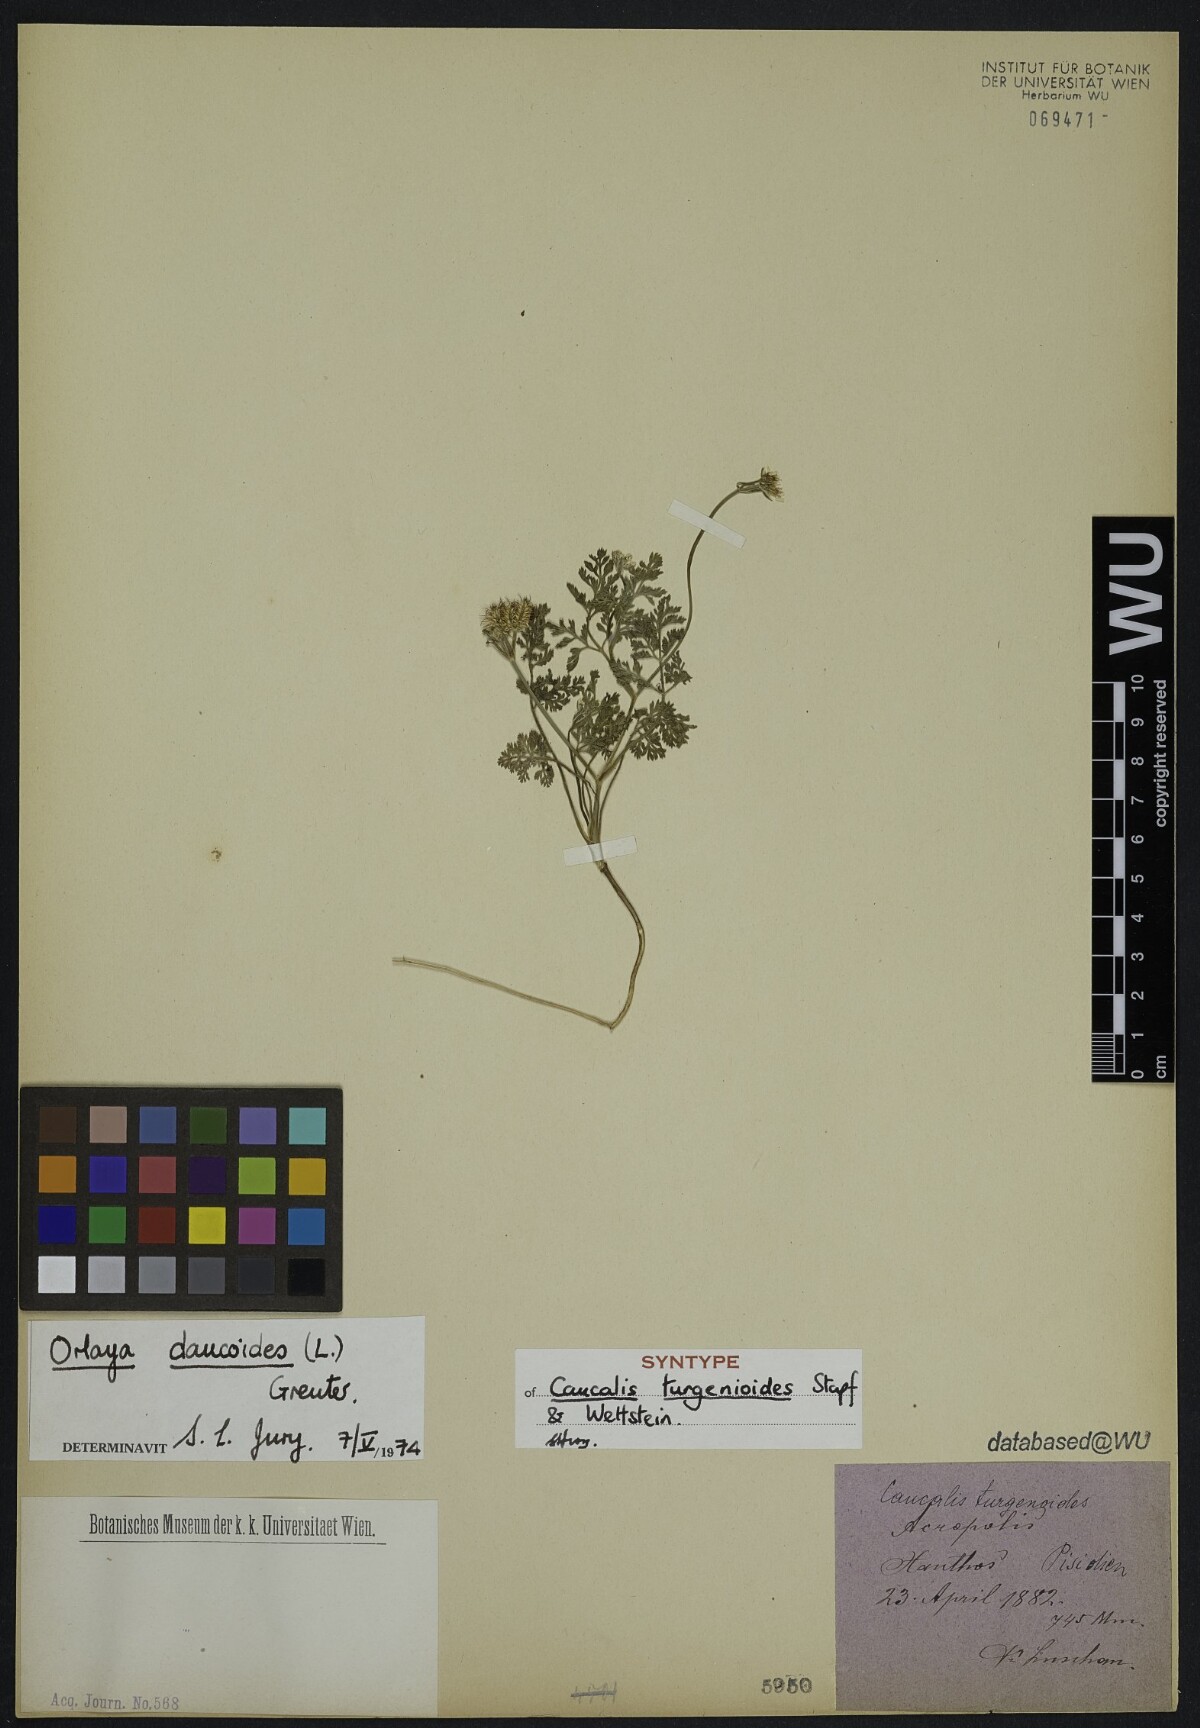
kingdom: Plantae
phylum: Tracheophyta
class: Magnoliopsida
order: Apiales
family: Apiaceae
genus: Caucalis
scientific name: Caucalis turgenioides
